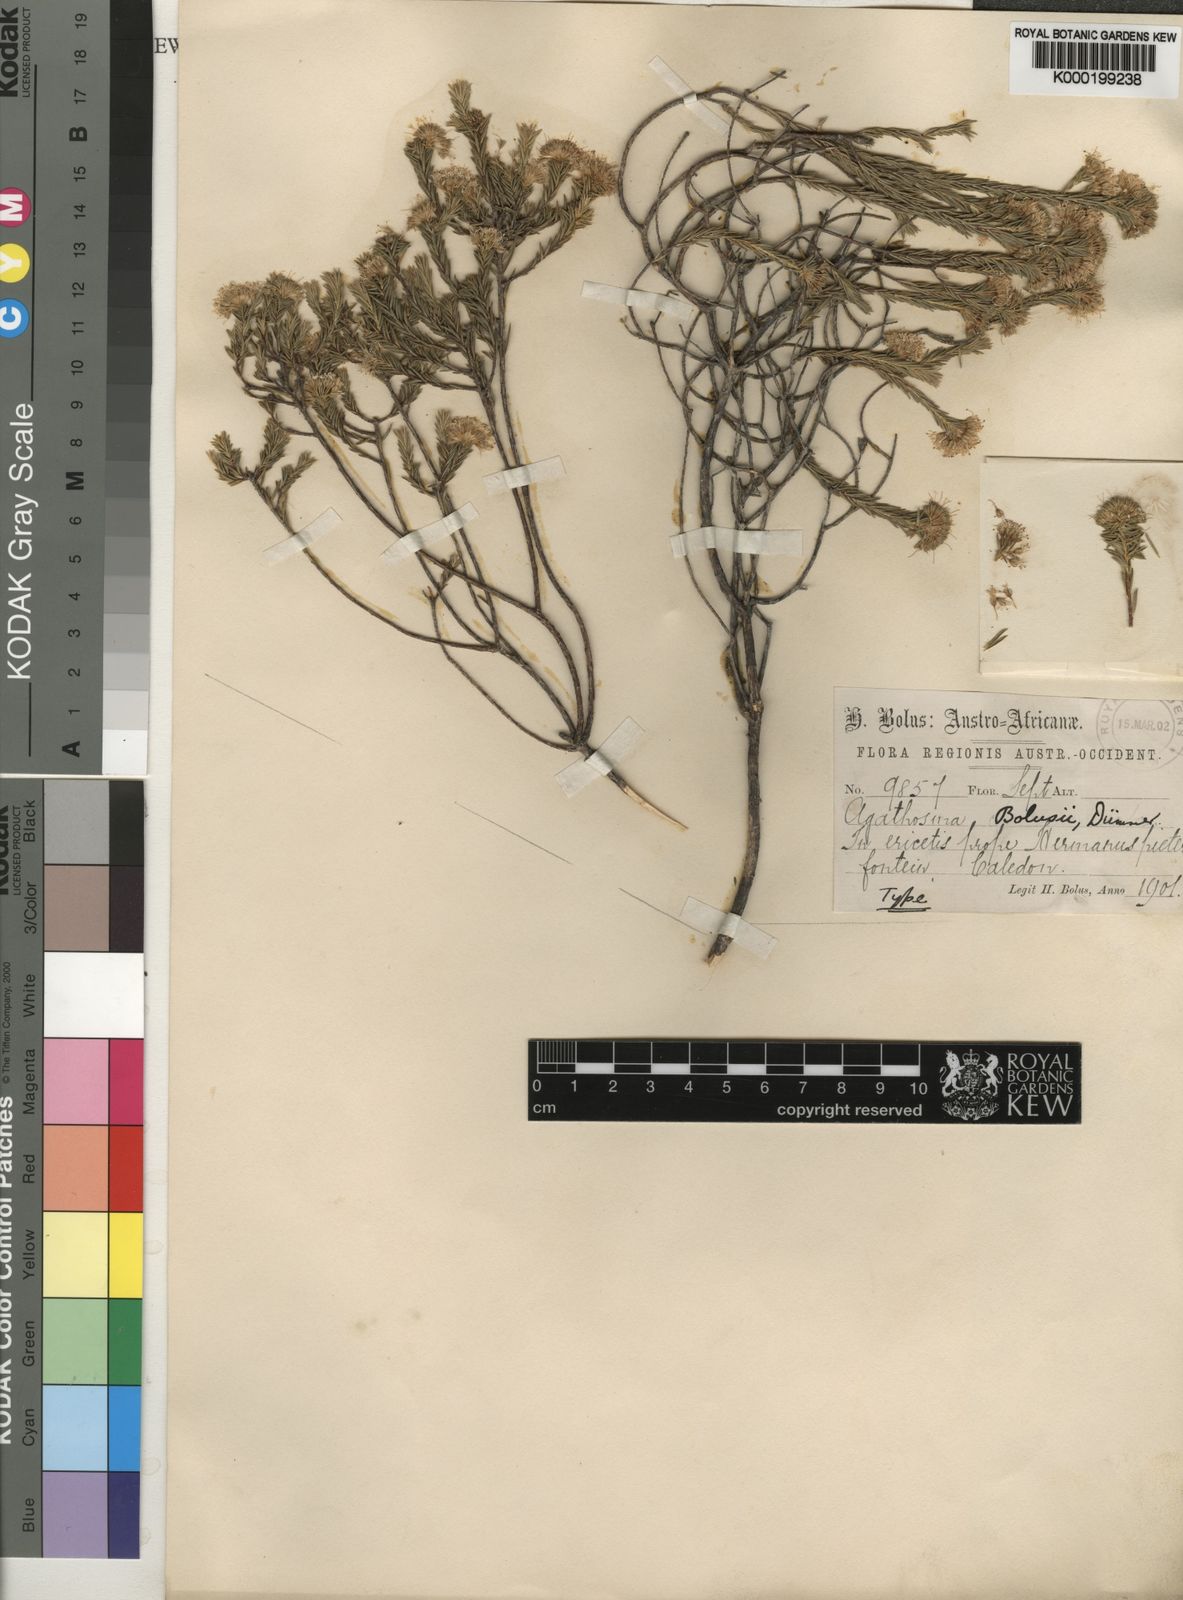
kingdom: Plantae
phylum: Tracheophyta
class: Magnoliopsida
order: Sapindales
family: Rutaceae
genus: Agathosma
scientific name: Agathosma bifida
